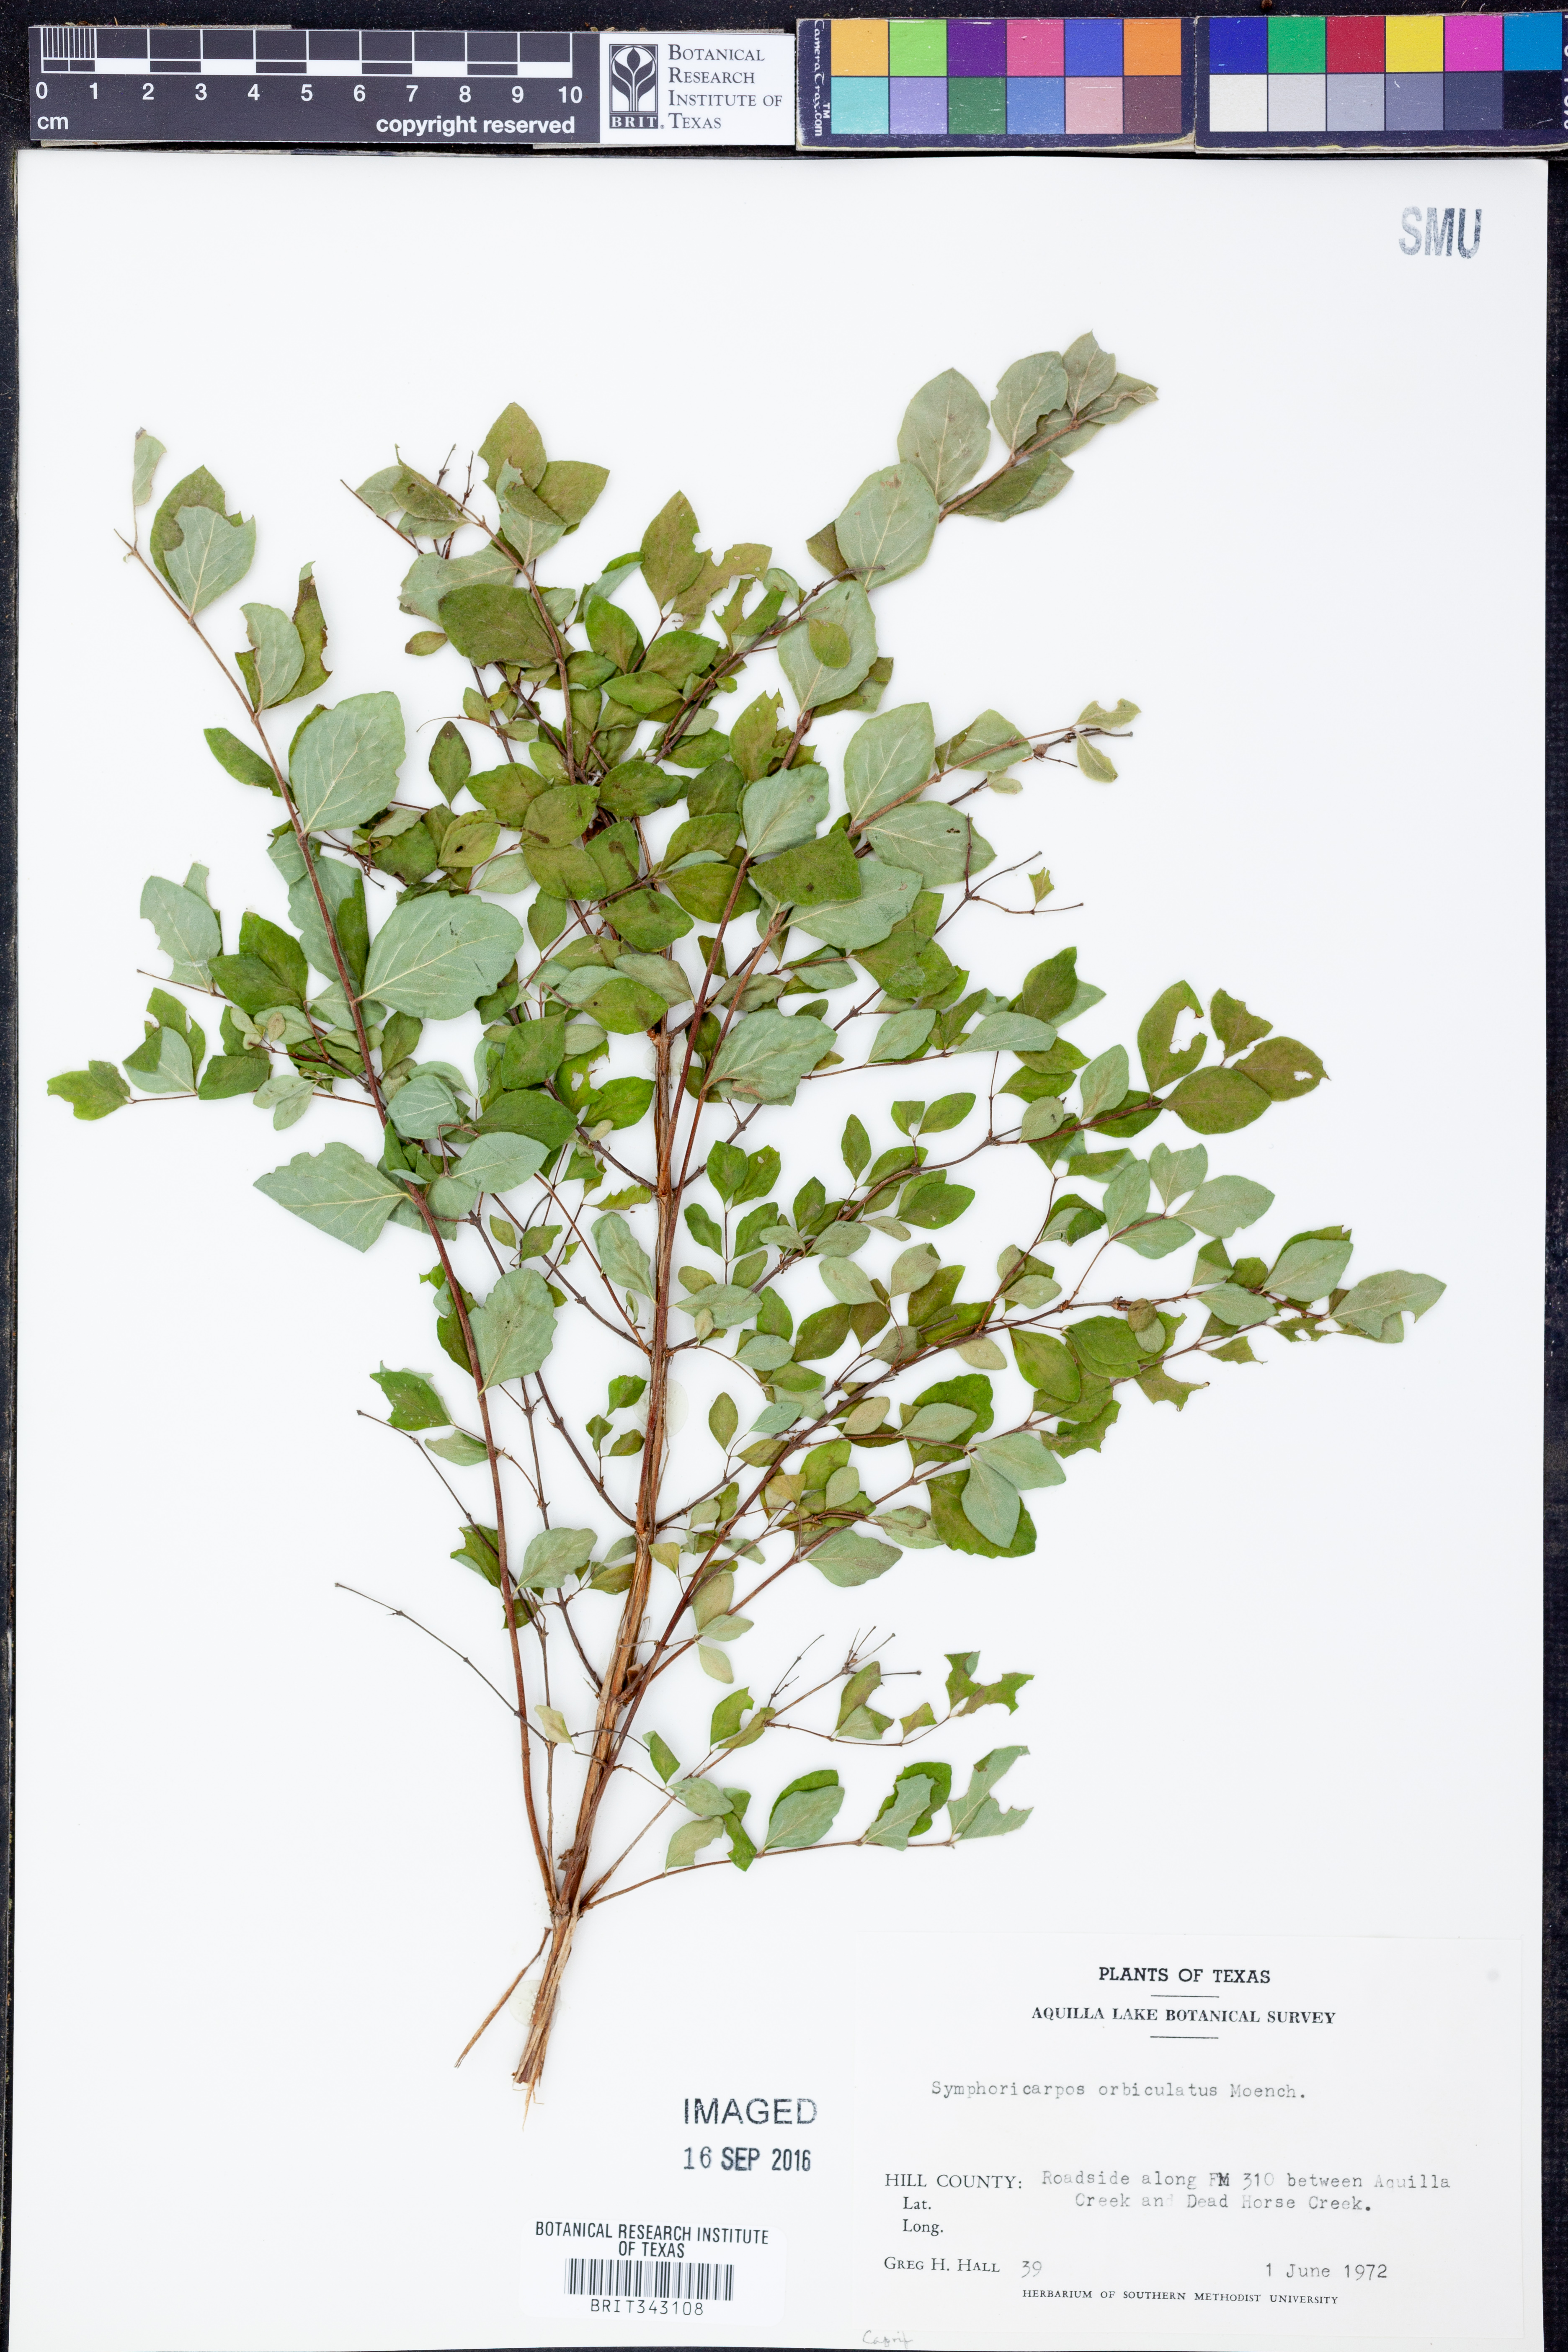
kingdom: Plantae
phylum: Tracheophyta
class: Magnoliopsida
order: Dipsacales
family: Caprifoliaceae
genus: Symphoricarpos
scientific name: Symphoricarpos orbiculatus
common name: Coralberry
